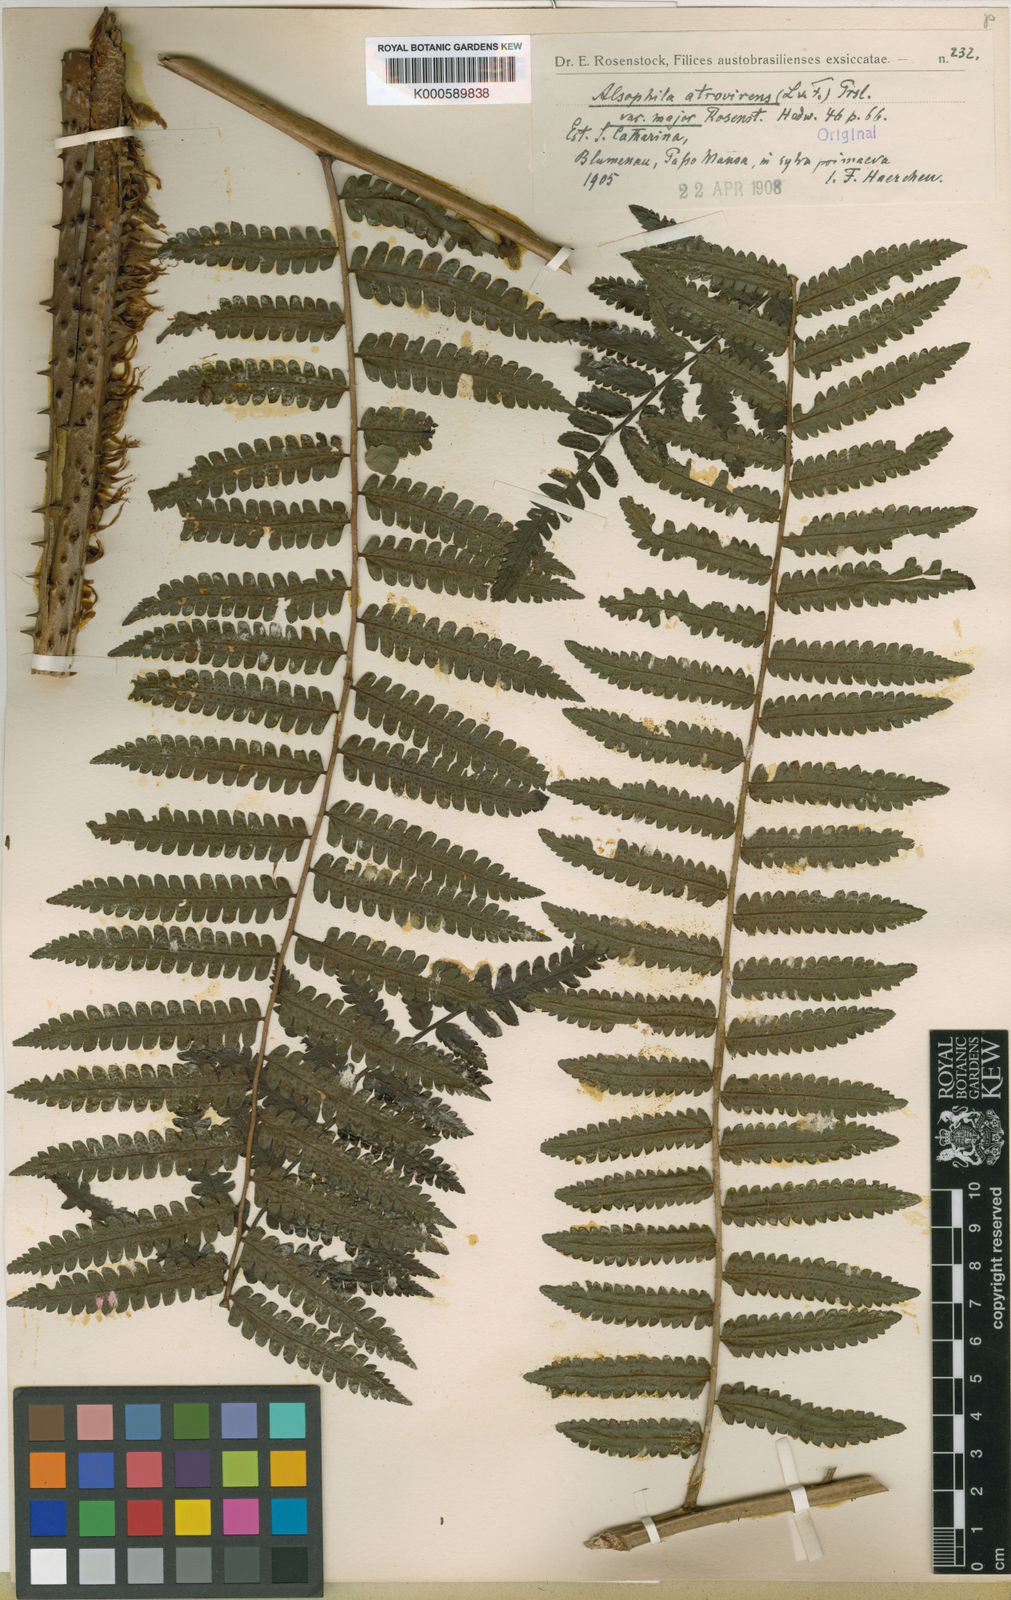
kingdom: Plantae
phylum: Tracheophyta
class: Polypodiopsida
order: Cyatheales
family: Cyatheaceae
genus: Cyathea
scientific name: Cyathea atrovirens
